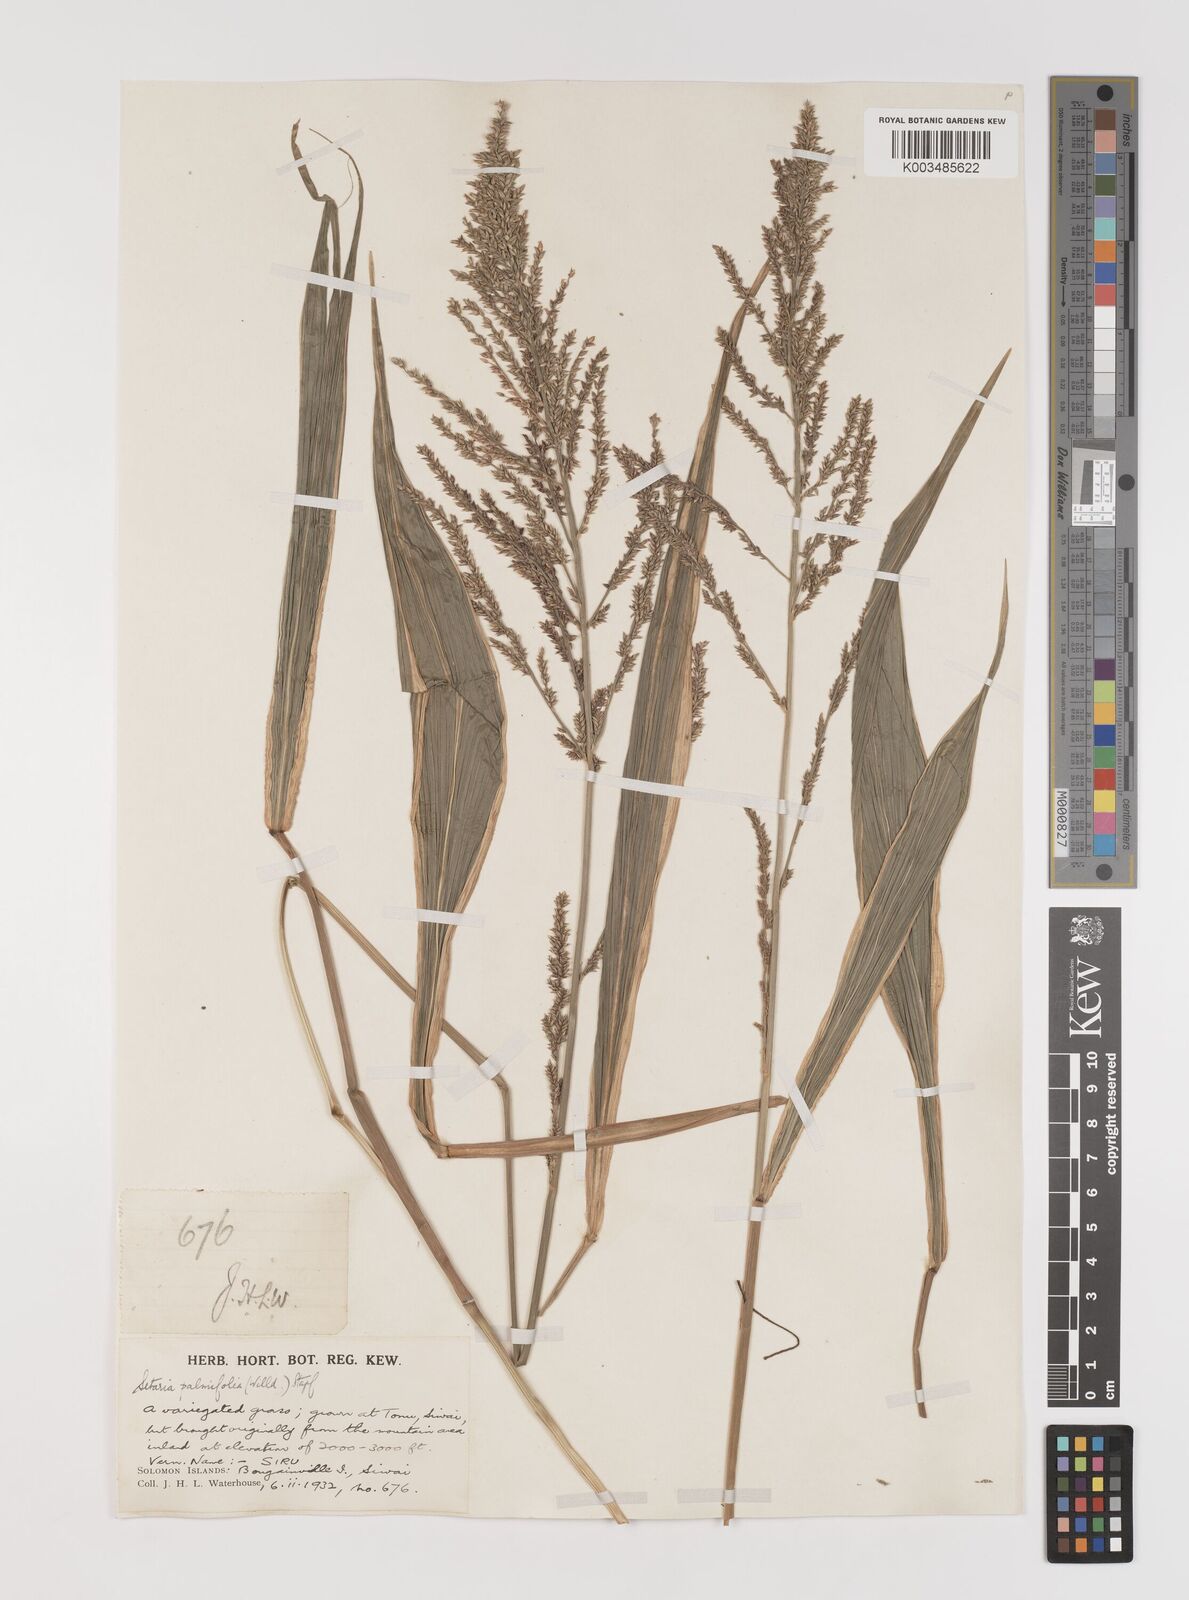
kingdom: Plantae
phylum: Tracheophyta
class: Liliopsida
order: Poales
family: Poaceae
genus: Setaria
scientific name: Setaria palmifolia
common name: Broadleaved bristlegrass
